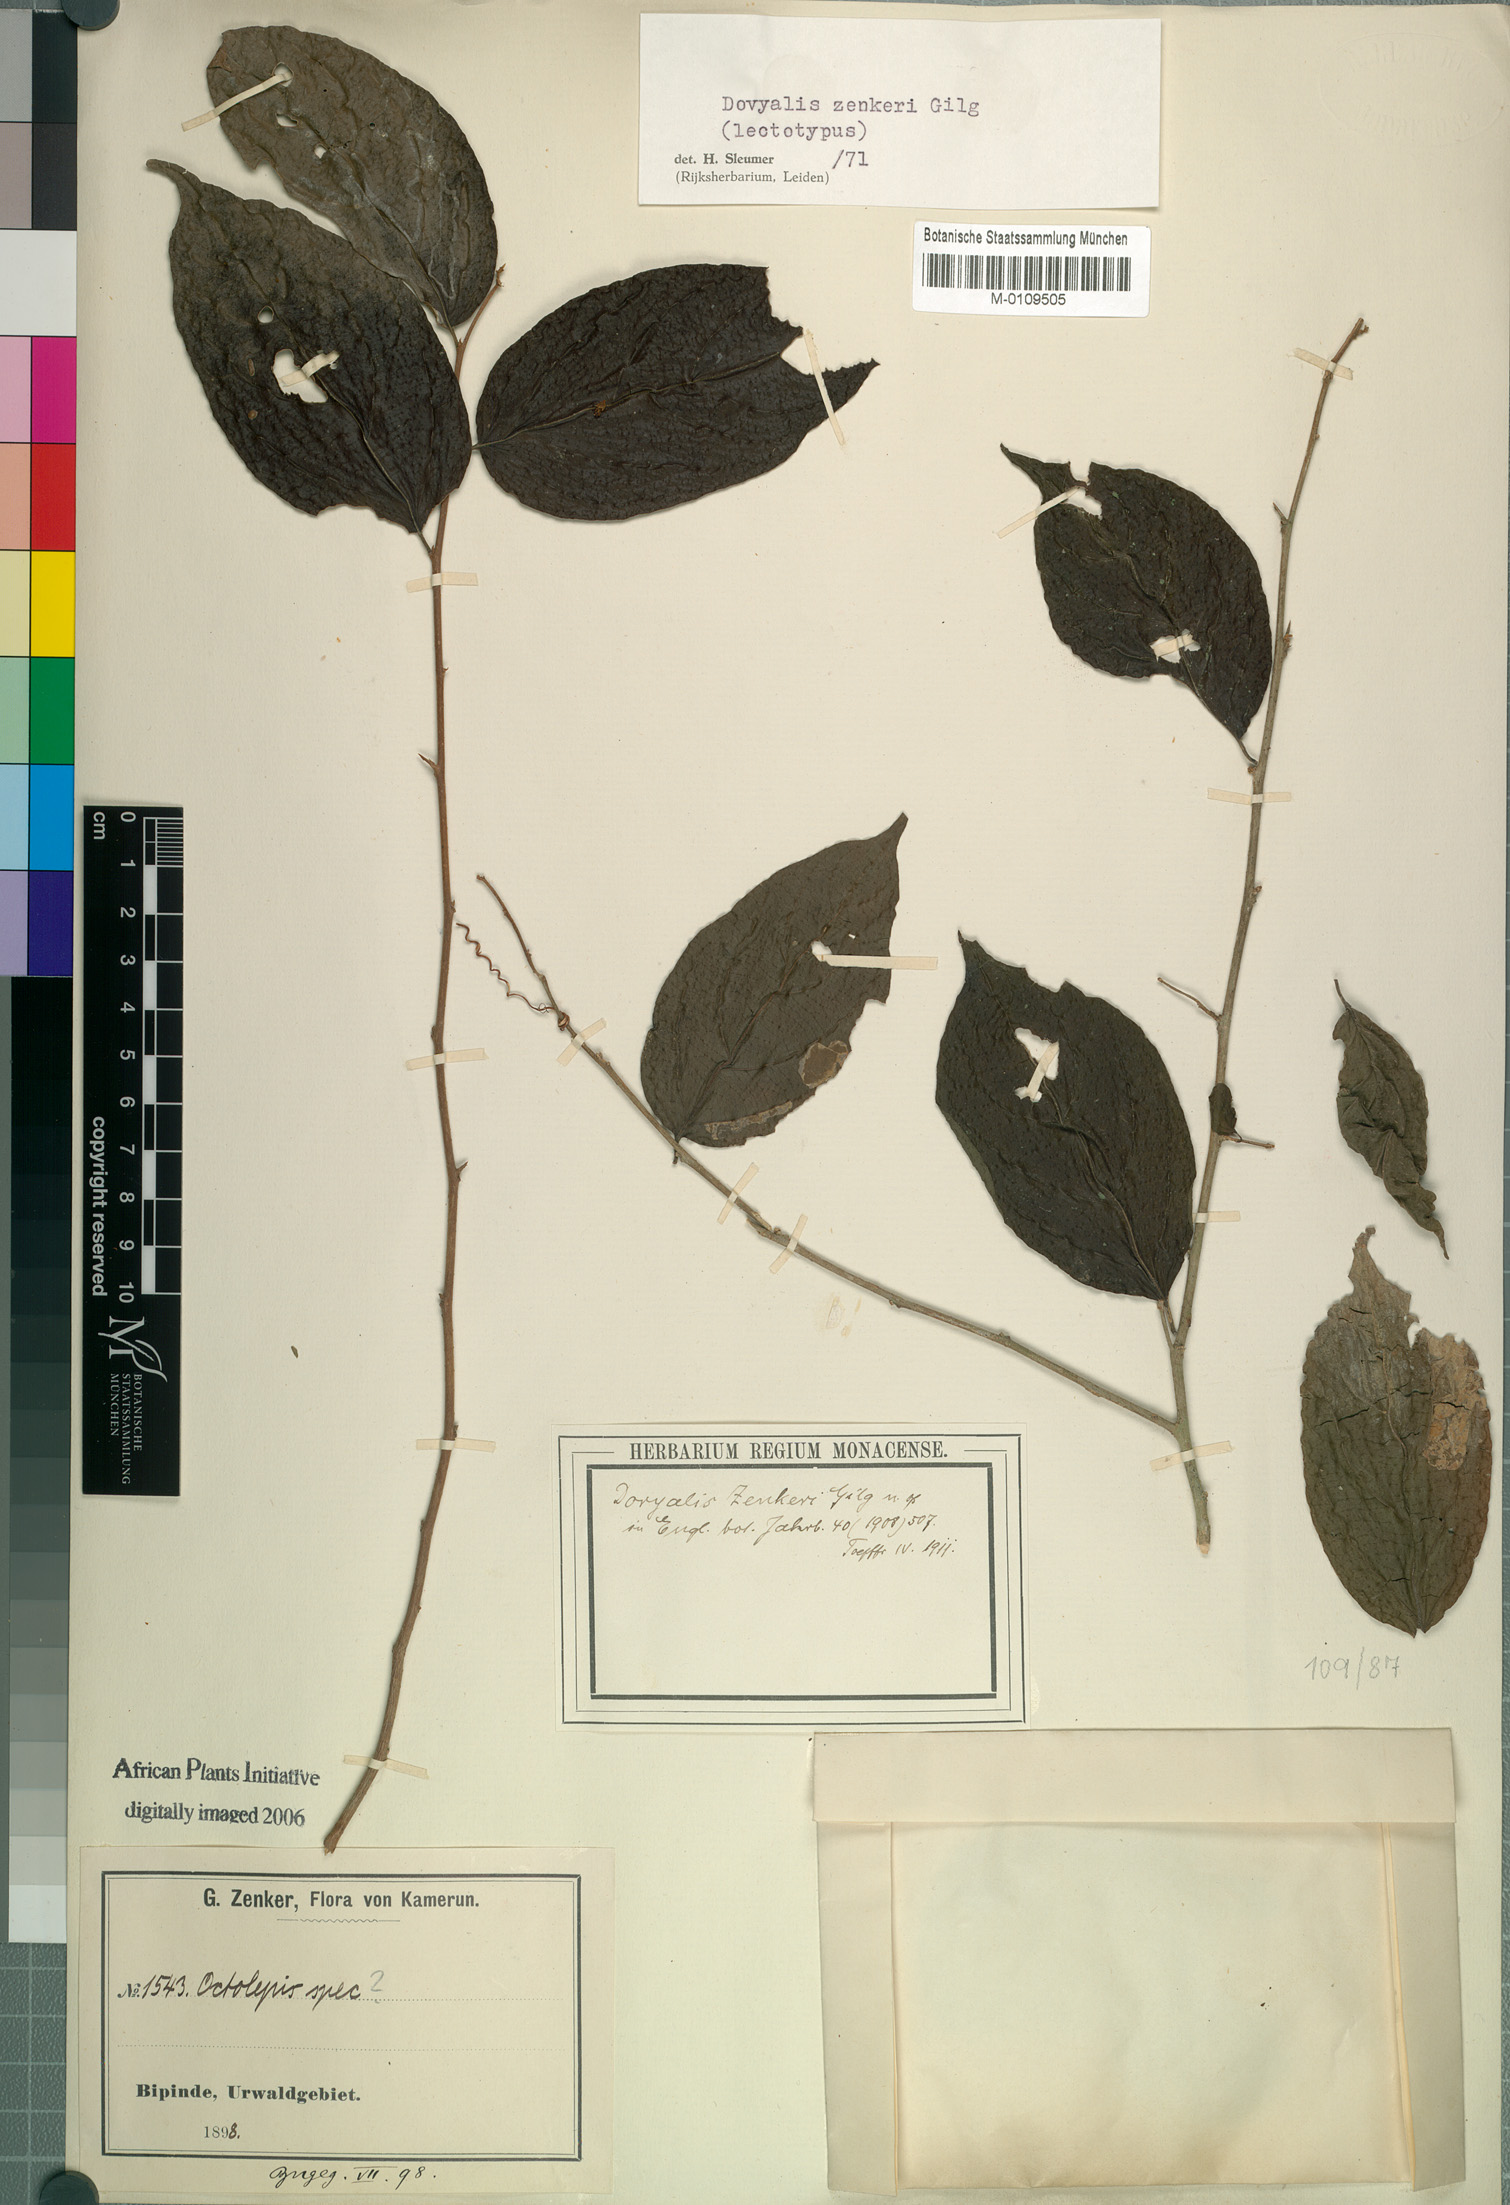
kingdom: Plantae
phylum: Tracheophyta
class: Magnoliopsida
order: Malpighiales
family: Salicaceae
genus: Dovyalis
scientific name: Dovyalis zenkeri
